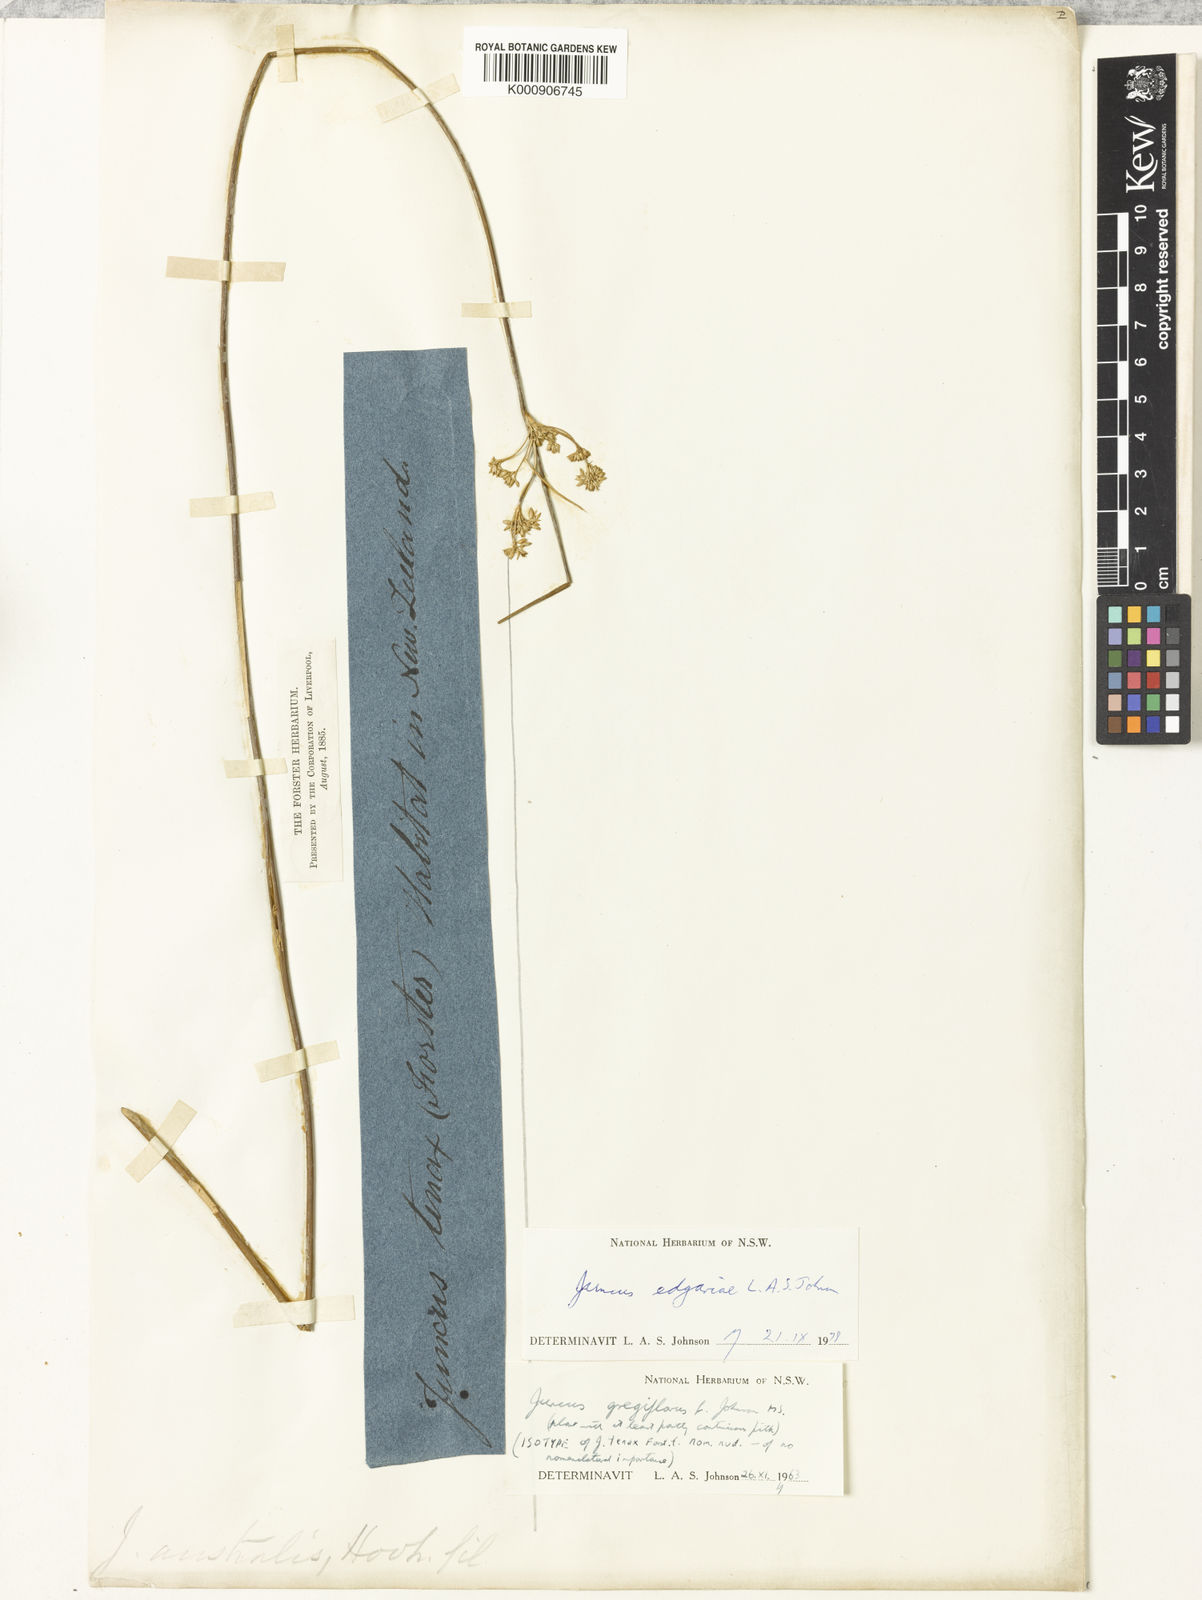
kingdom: Plantae
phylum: Tracheophyta
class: Liliopsida
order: Poales
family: Juncaceae
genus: Juncus
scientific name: Juncus edgariae
